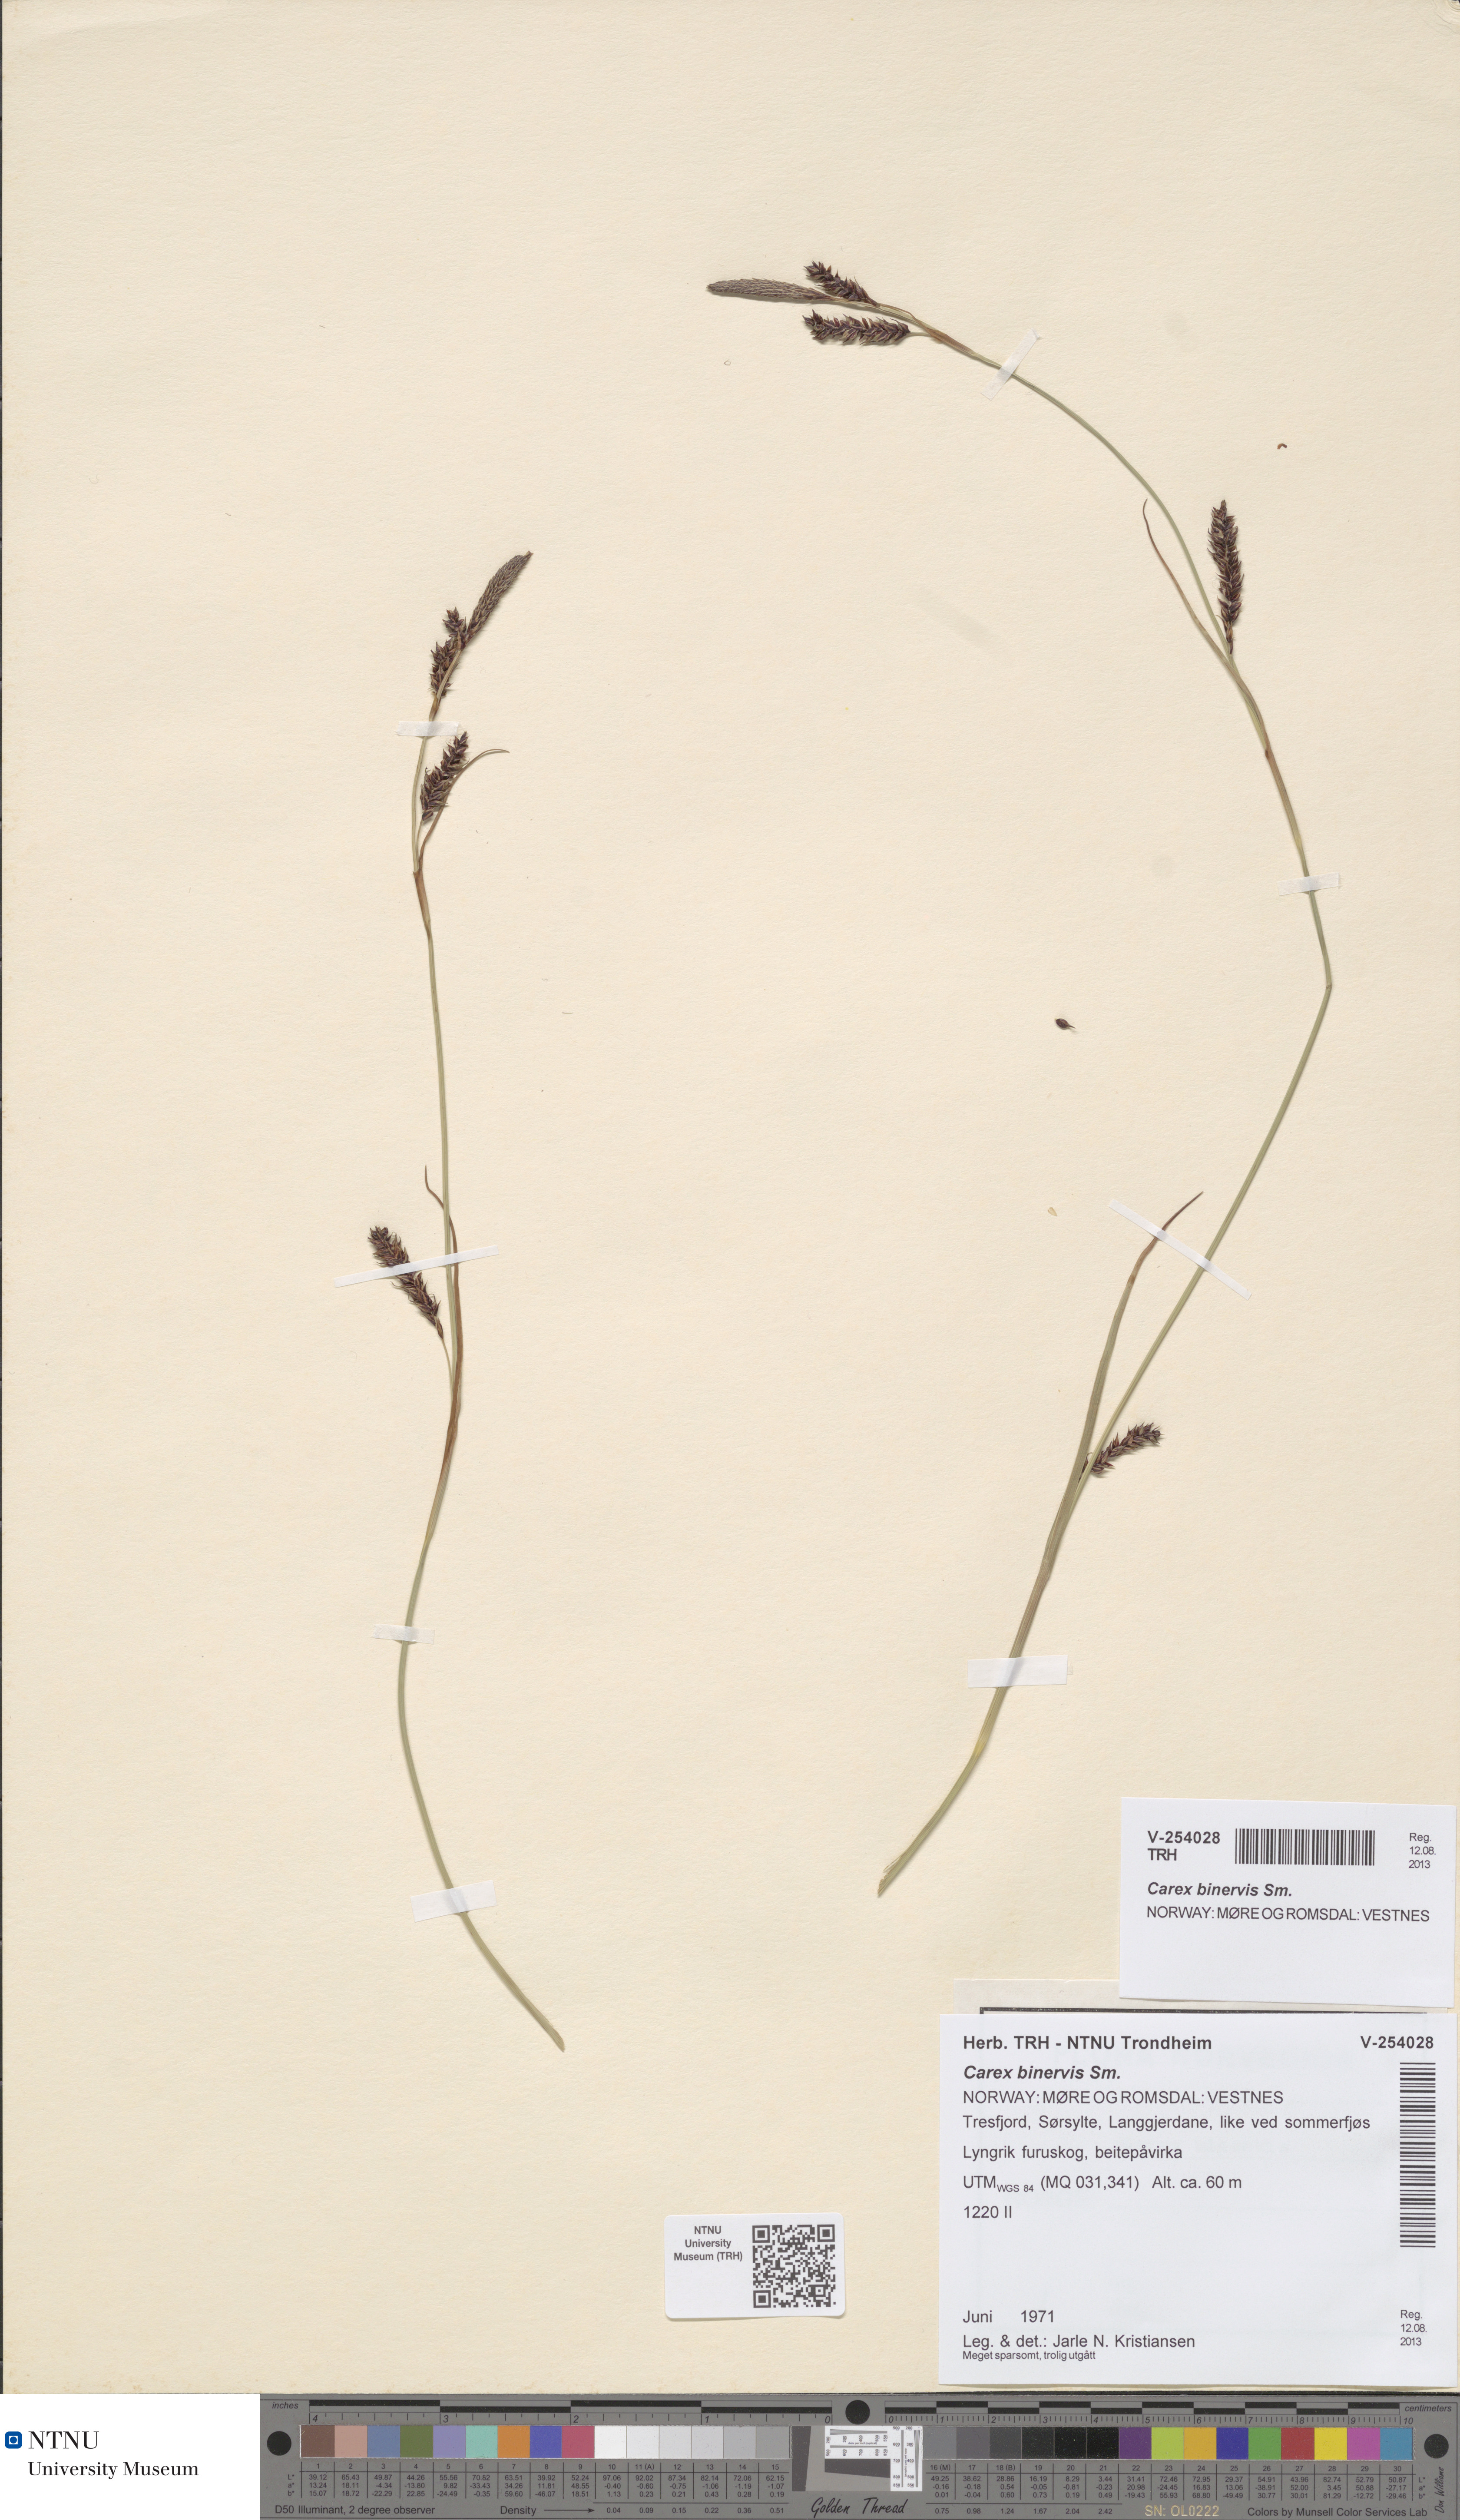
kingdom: Plantae
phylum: Tracheophyta
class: Liliopsida
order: Poales
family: Cyperaceae
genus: Carex
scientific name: Carex binervis
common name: Green-ribbed sedge
